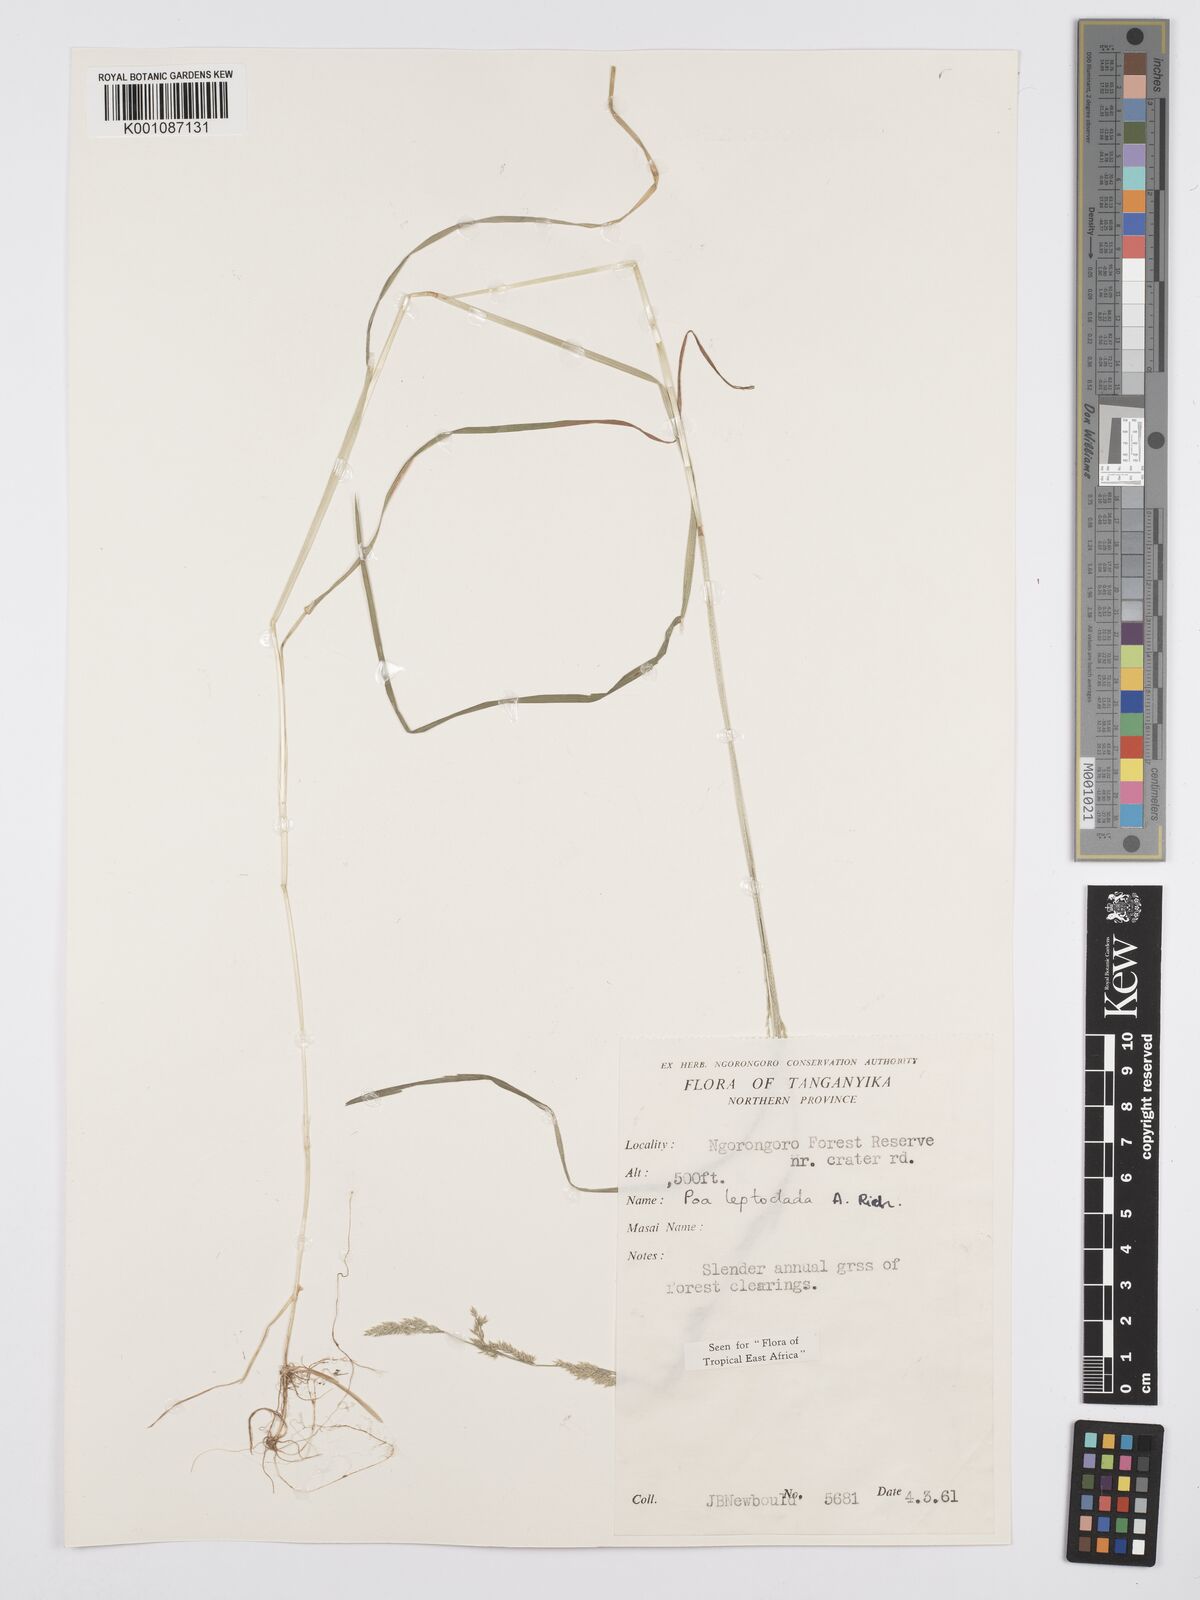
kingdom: Plantae
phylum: Tracheophyta
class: Liliopsida
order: Poales
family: Poaceae
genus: Poa
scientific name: Poa leptoclada
